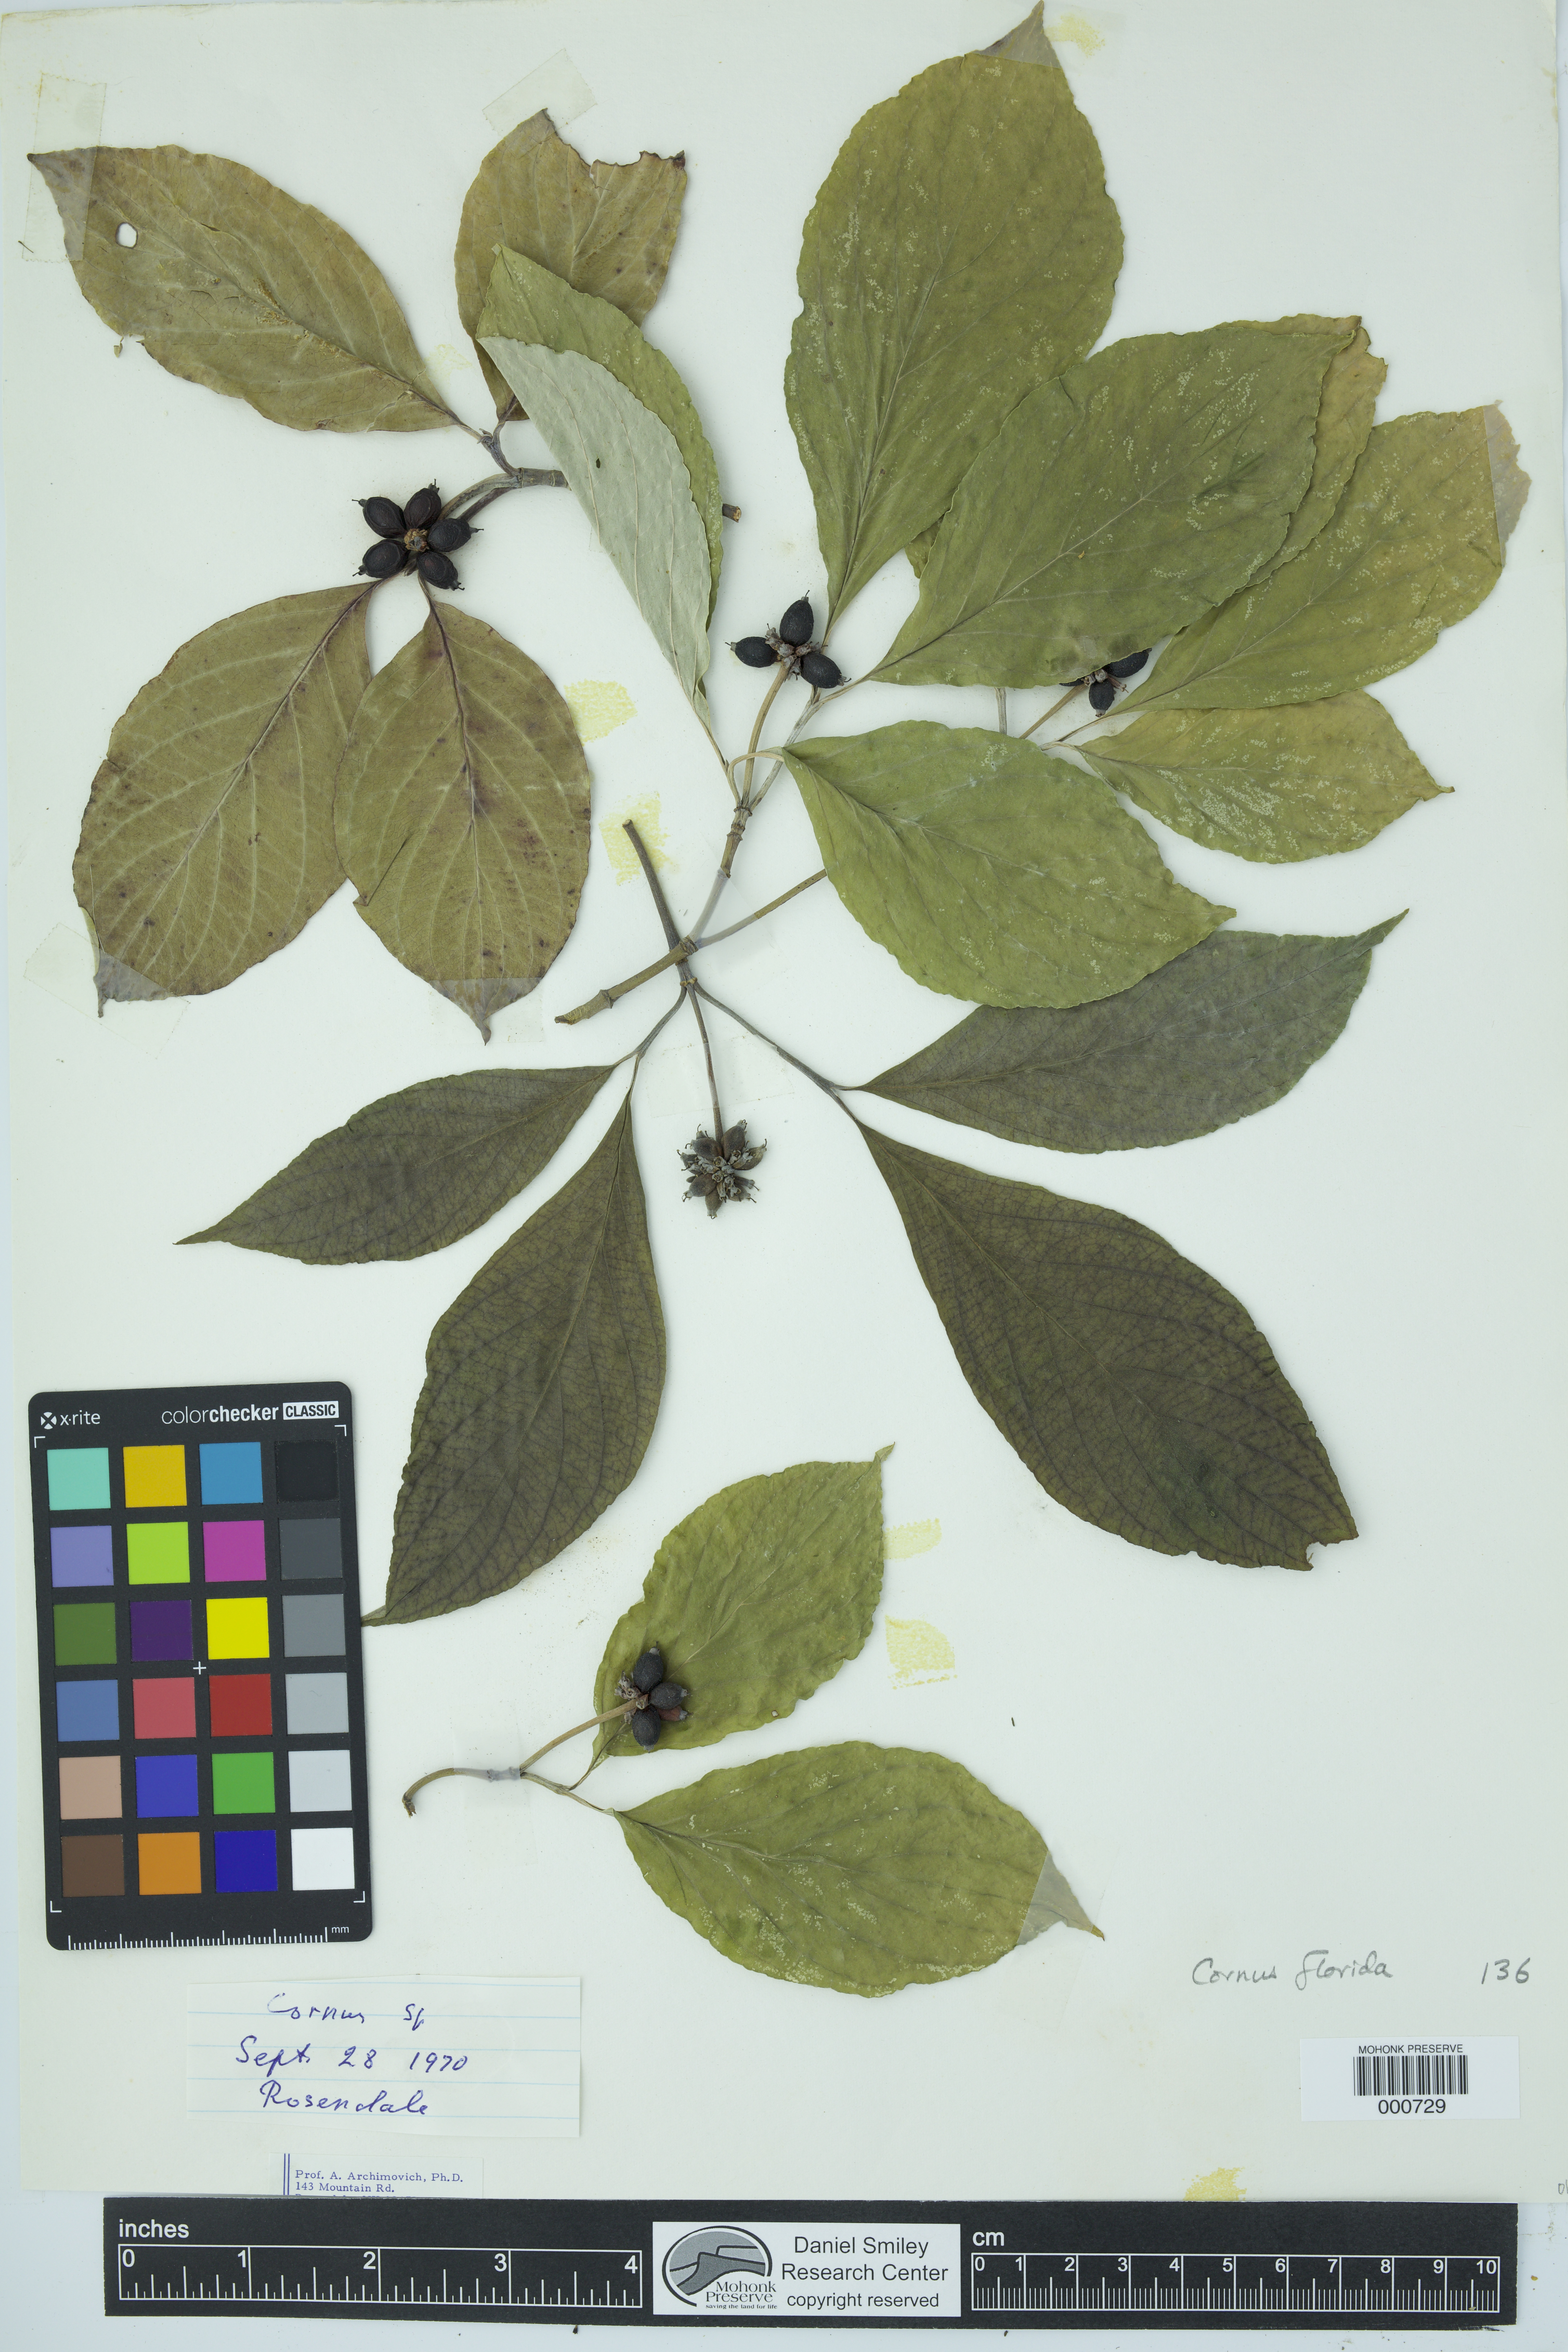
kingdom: Plantae
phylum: Tracheophyta
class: Magnoliopsida
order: Cornales
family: Cornaceae
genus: Cornus
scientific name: Cornus florida
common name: Flowering dogwood
